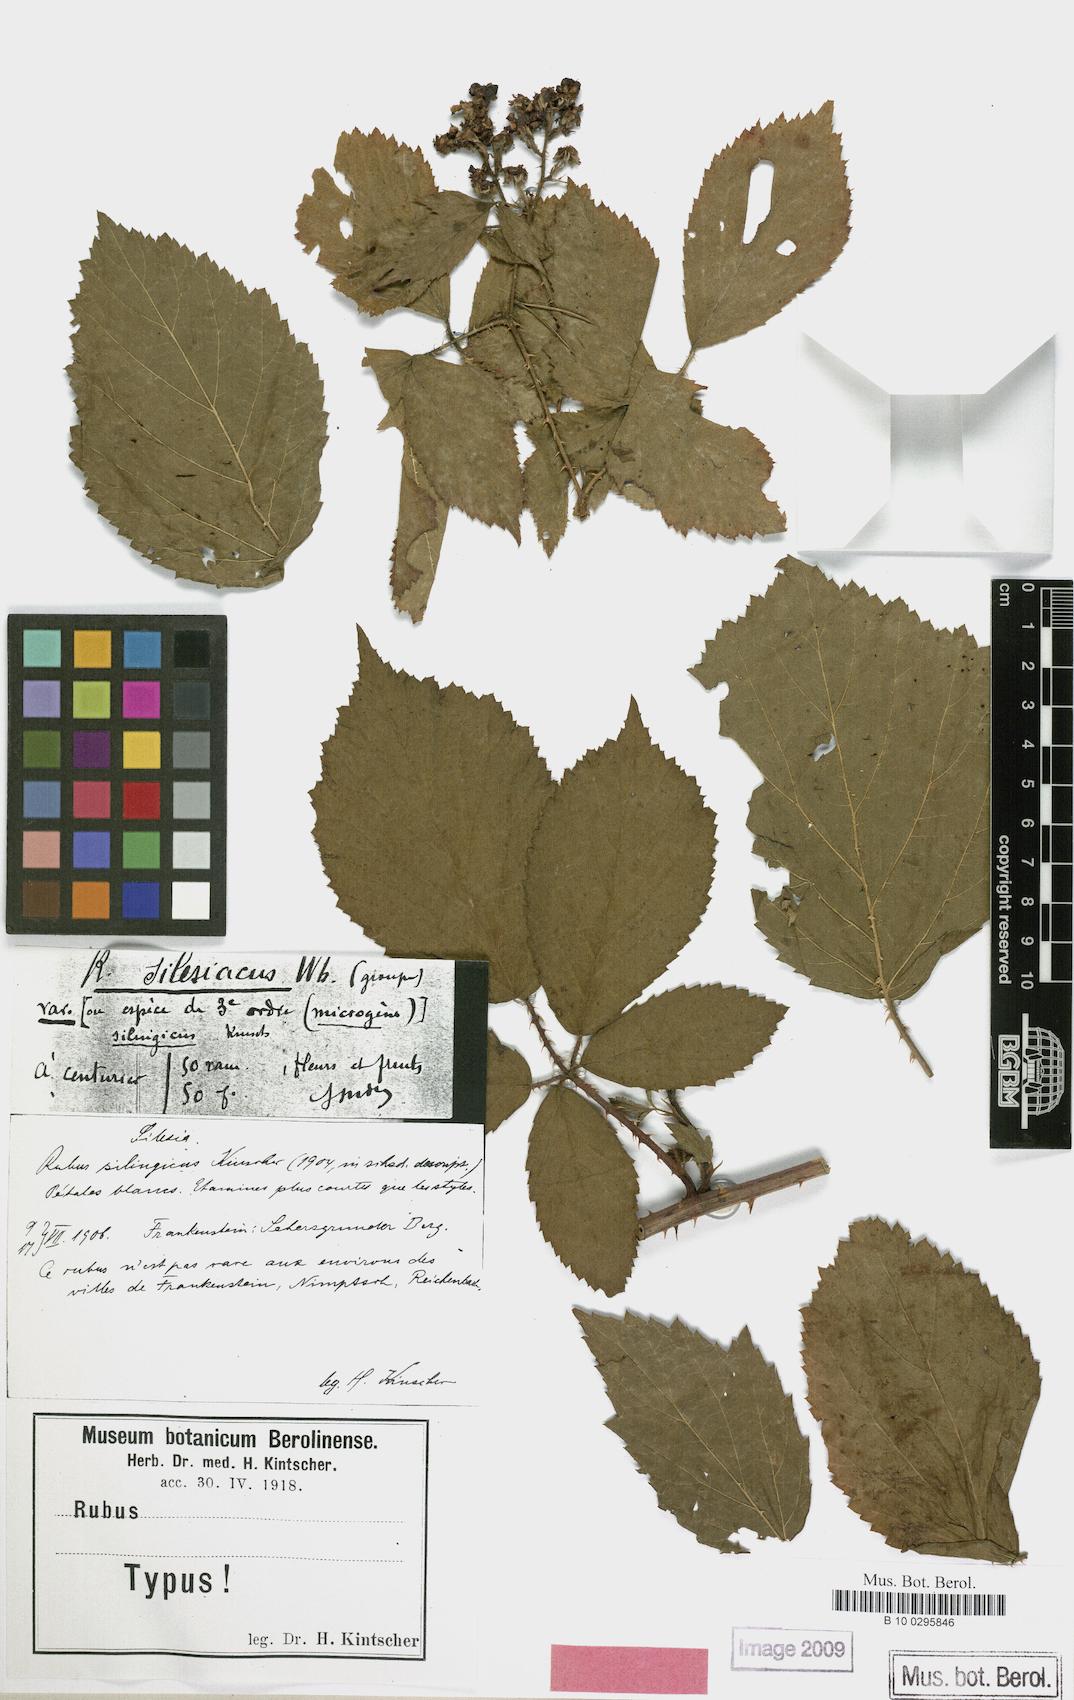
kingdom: Plantae
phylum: Tracheophyta
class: Magnoliopsida
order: Rosales
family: Rosaceae
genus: Rubus
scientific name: Rubus chlorothyrsos
